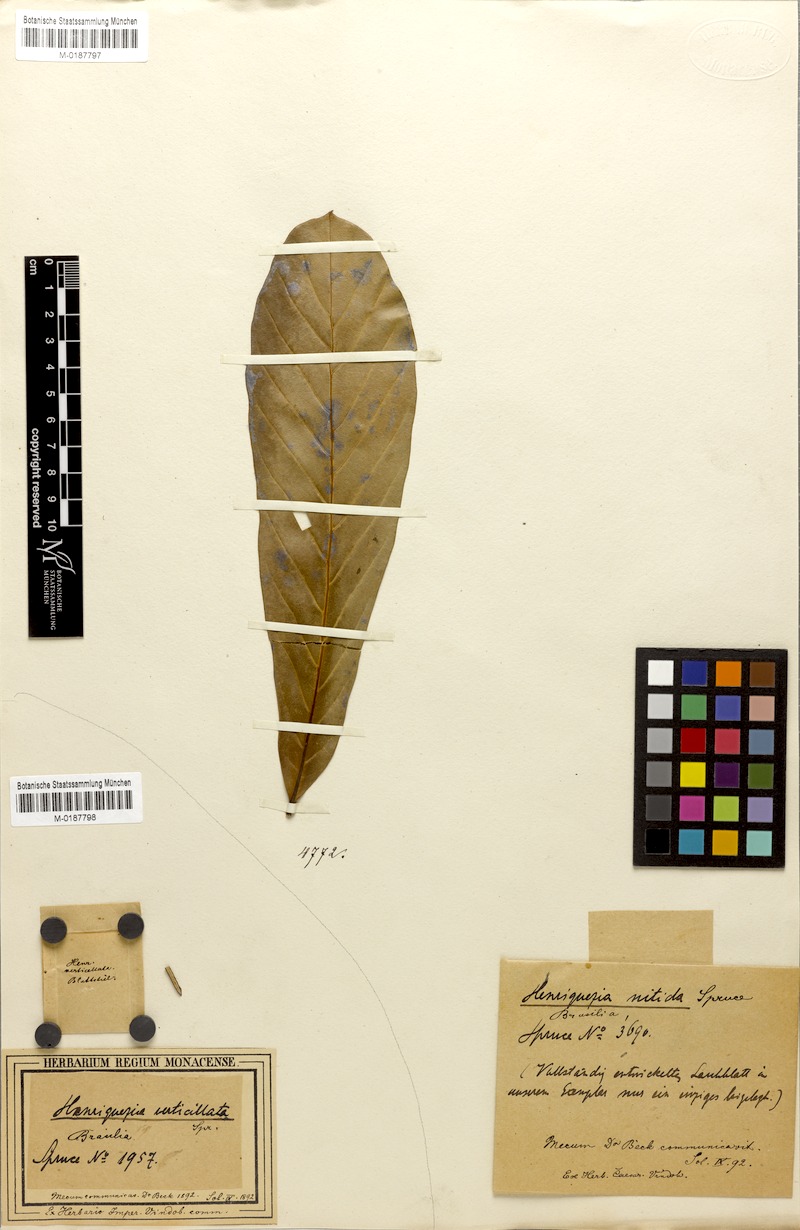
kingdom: Plantae
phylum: Tracheophyta
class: Magnoliopsida
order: Gentianales
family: Rubiaceae
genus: Henriquezia
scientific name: Henriquezia nitida
